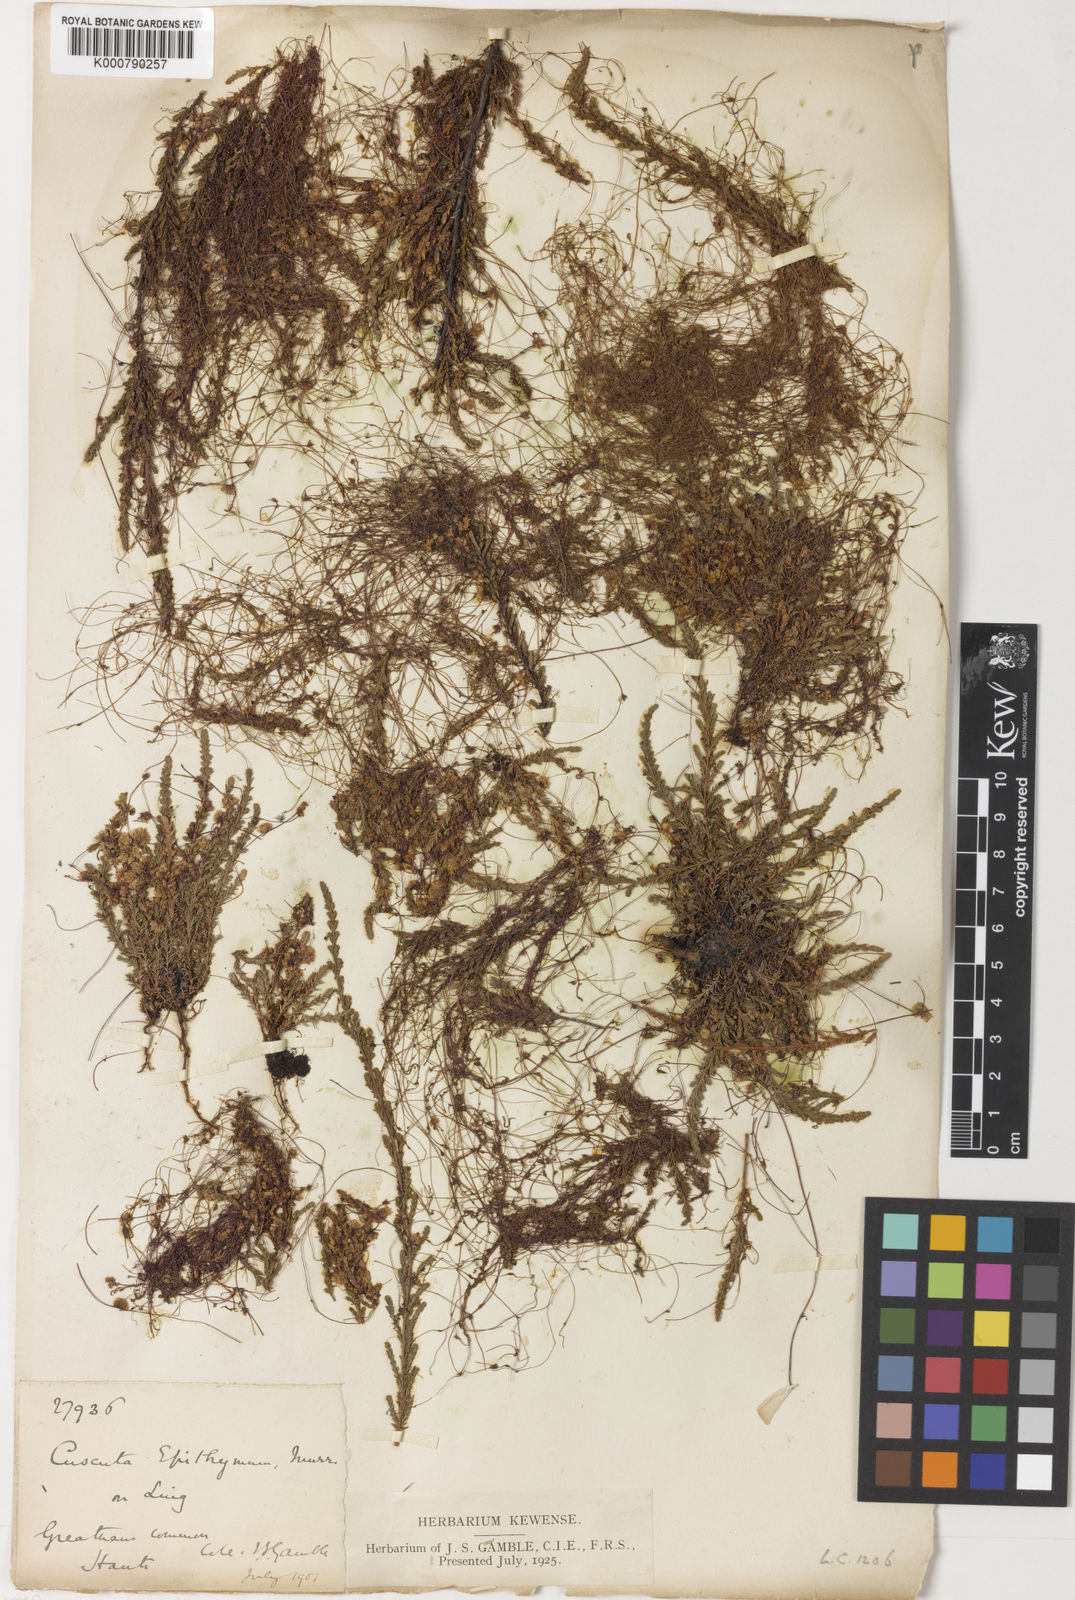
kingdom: Plantae
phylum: Tracheophyta
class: Magnoliopsida
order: Solanales
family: Convolvulaceae
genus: Cuscuta
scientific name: Cuscuta epithymum
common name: Clover dodder
